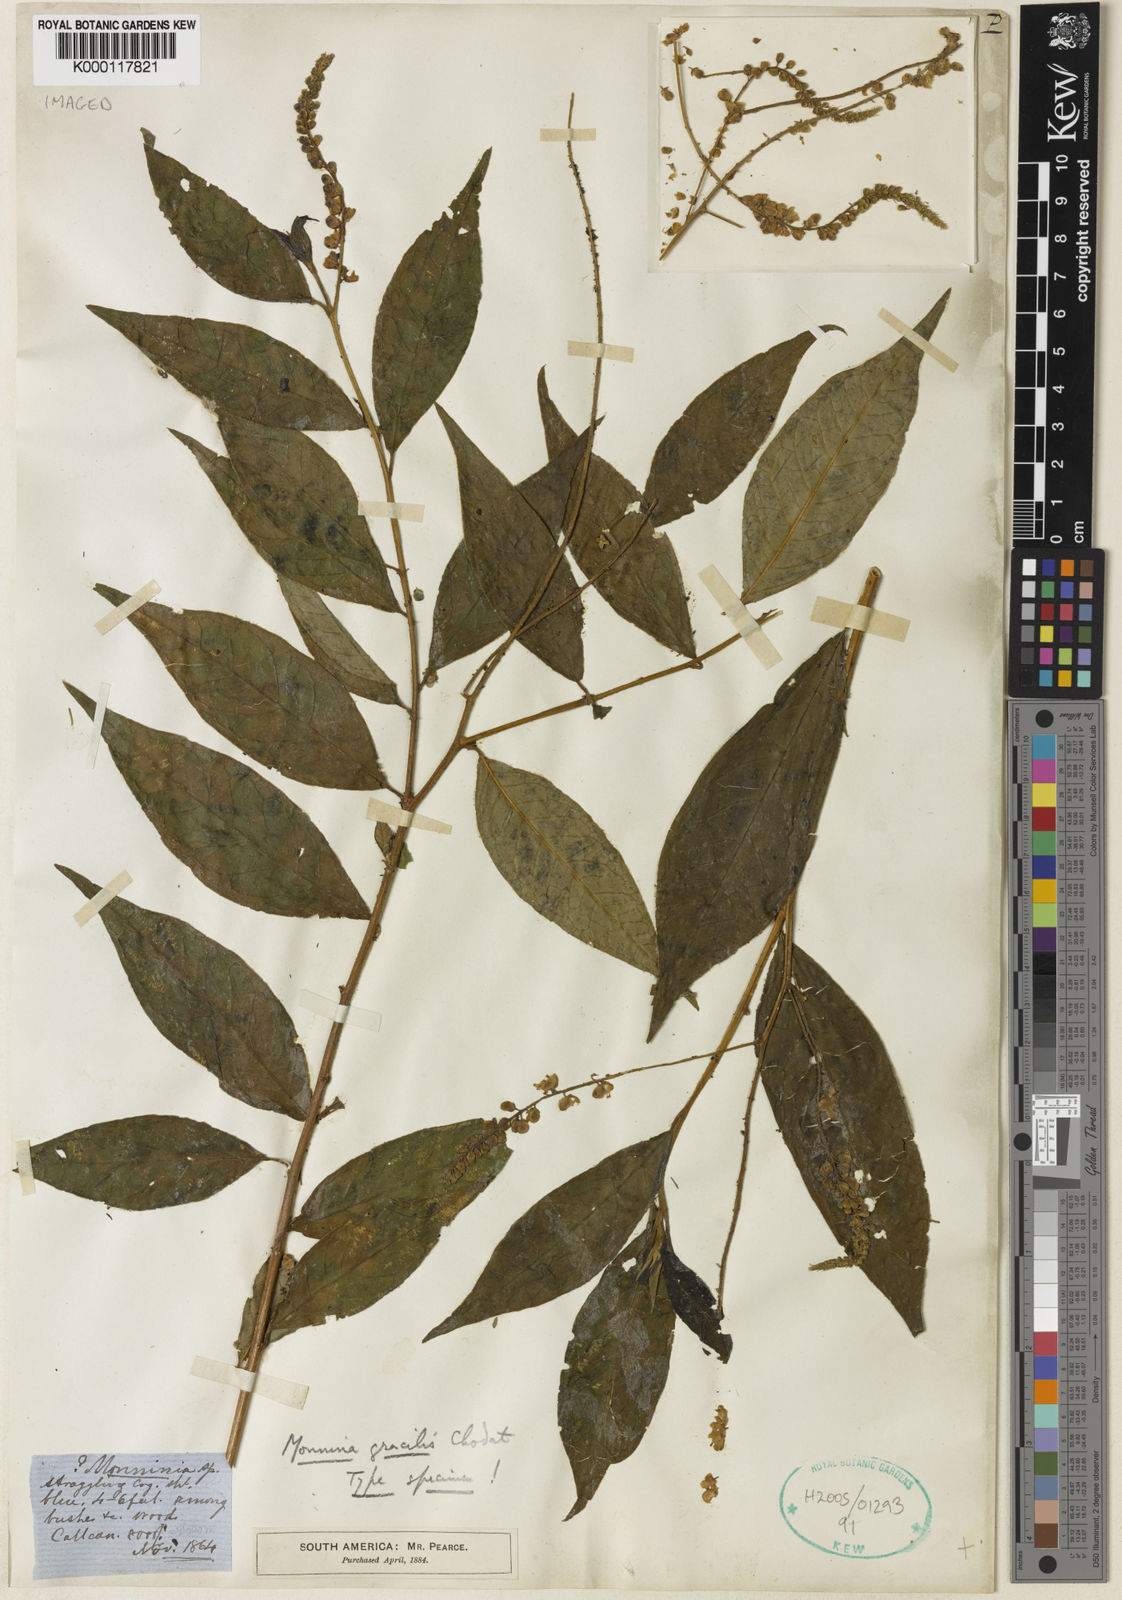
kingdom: Plantae
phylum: Tracheophyta
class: Magnoliopsida
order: Fabales
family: Polygalaceae
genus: Monnina
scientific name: Monnina gracilis
